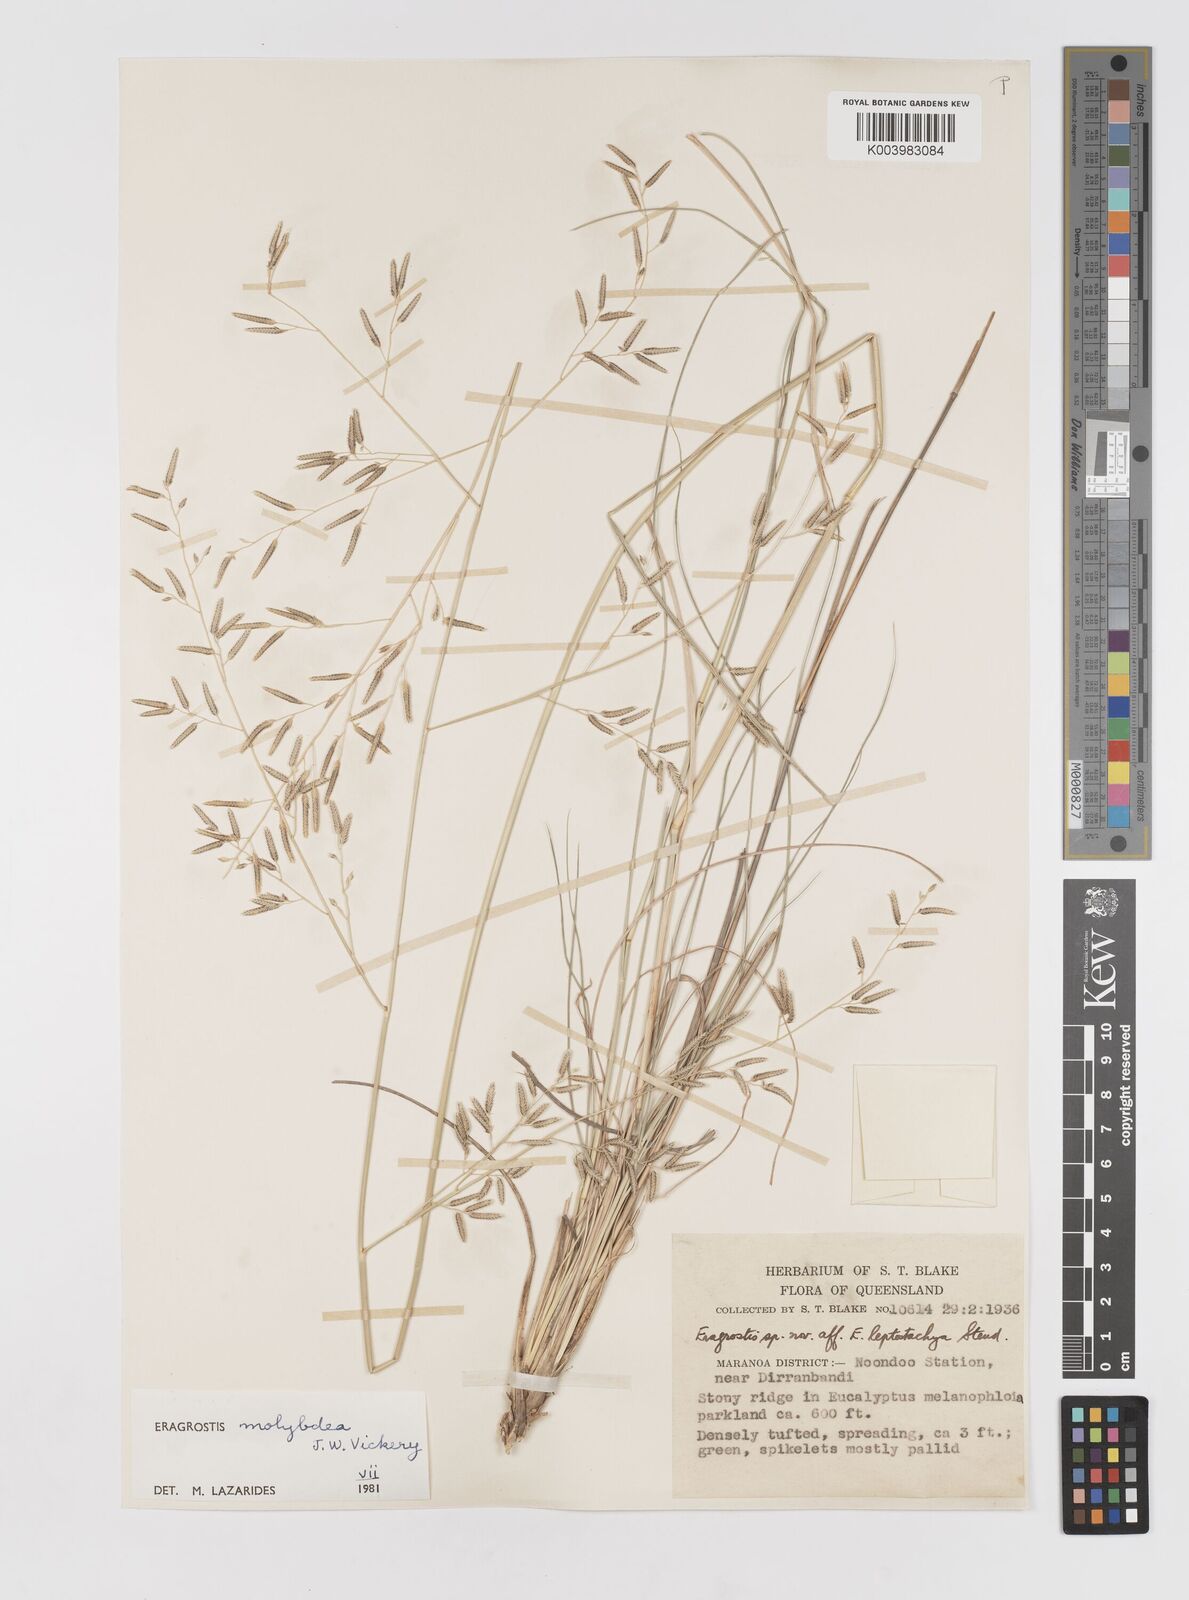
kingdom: Plantae
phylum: Tracheophyta
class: Liliopsida
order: Poales
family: Poaceae
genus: Eragrostis
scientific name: Eragrostis leptostachya
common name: Australian lovegrass
